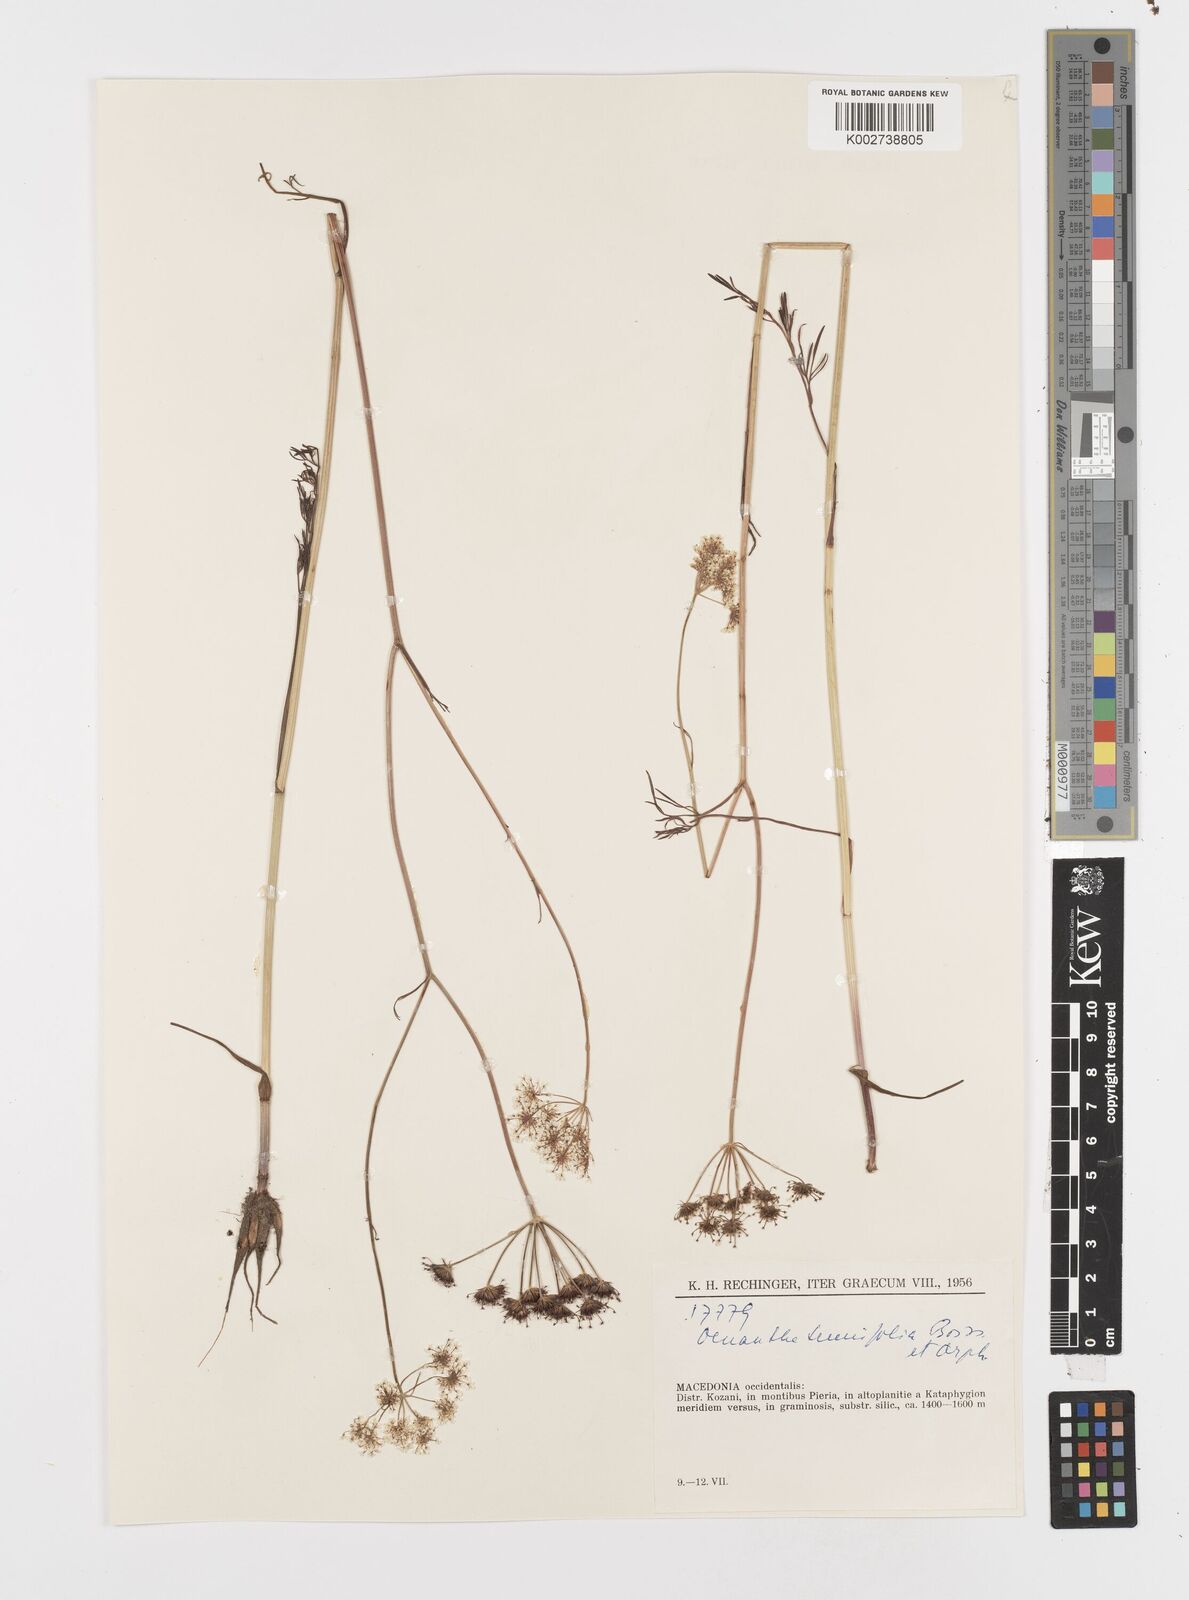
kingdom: Plantae
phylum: Tracheophyta
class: Magnoliopsida
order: Apiales
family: Apiaceae
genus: Oenanthe
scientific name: Oenanthe montis-khortiati
